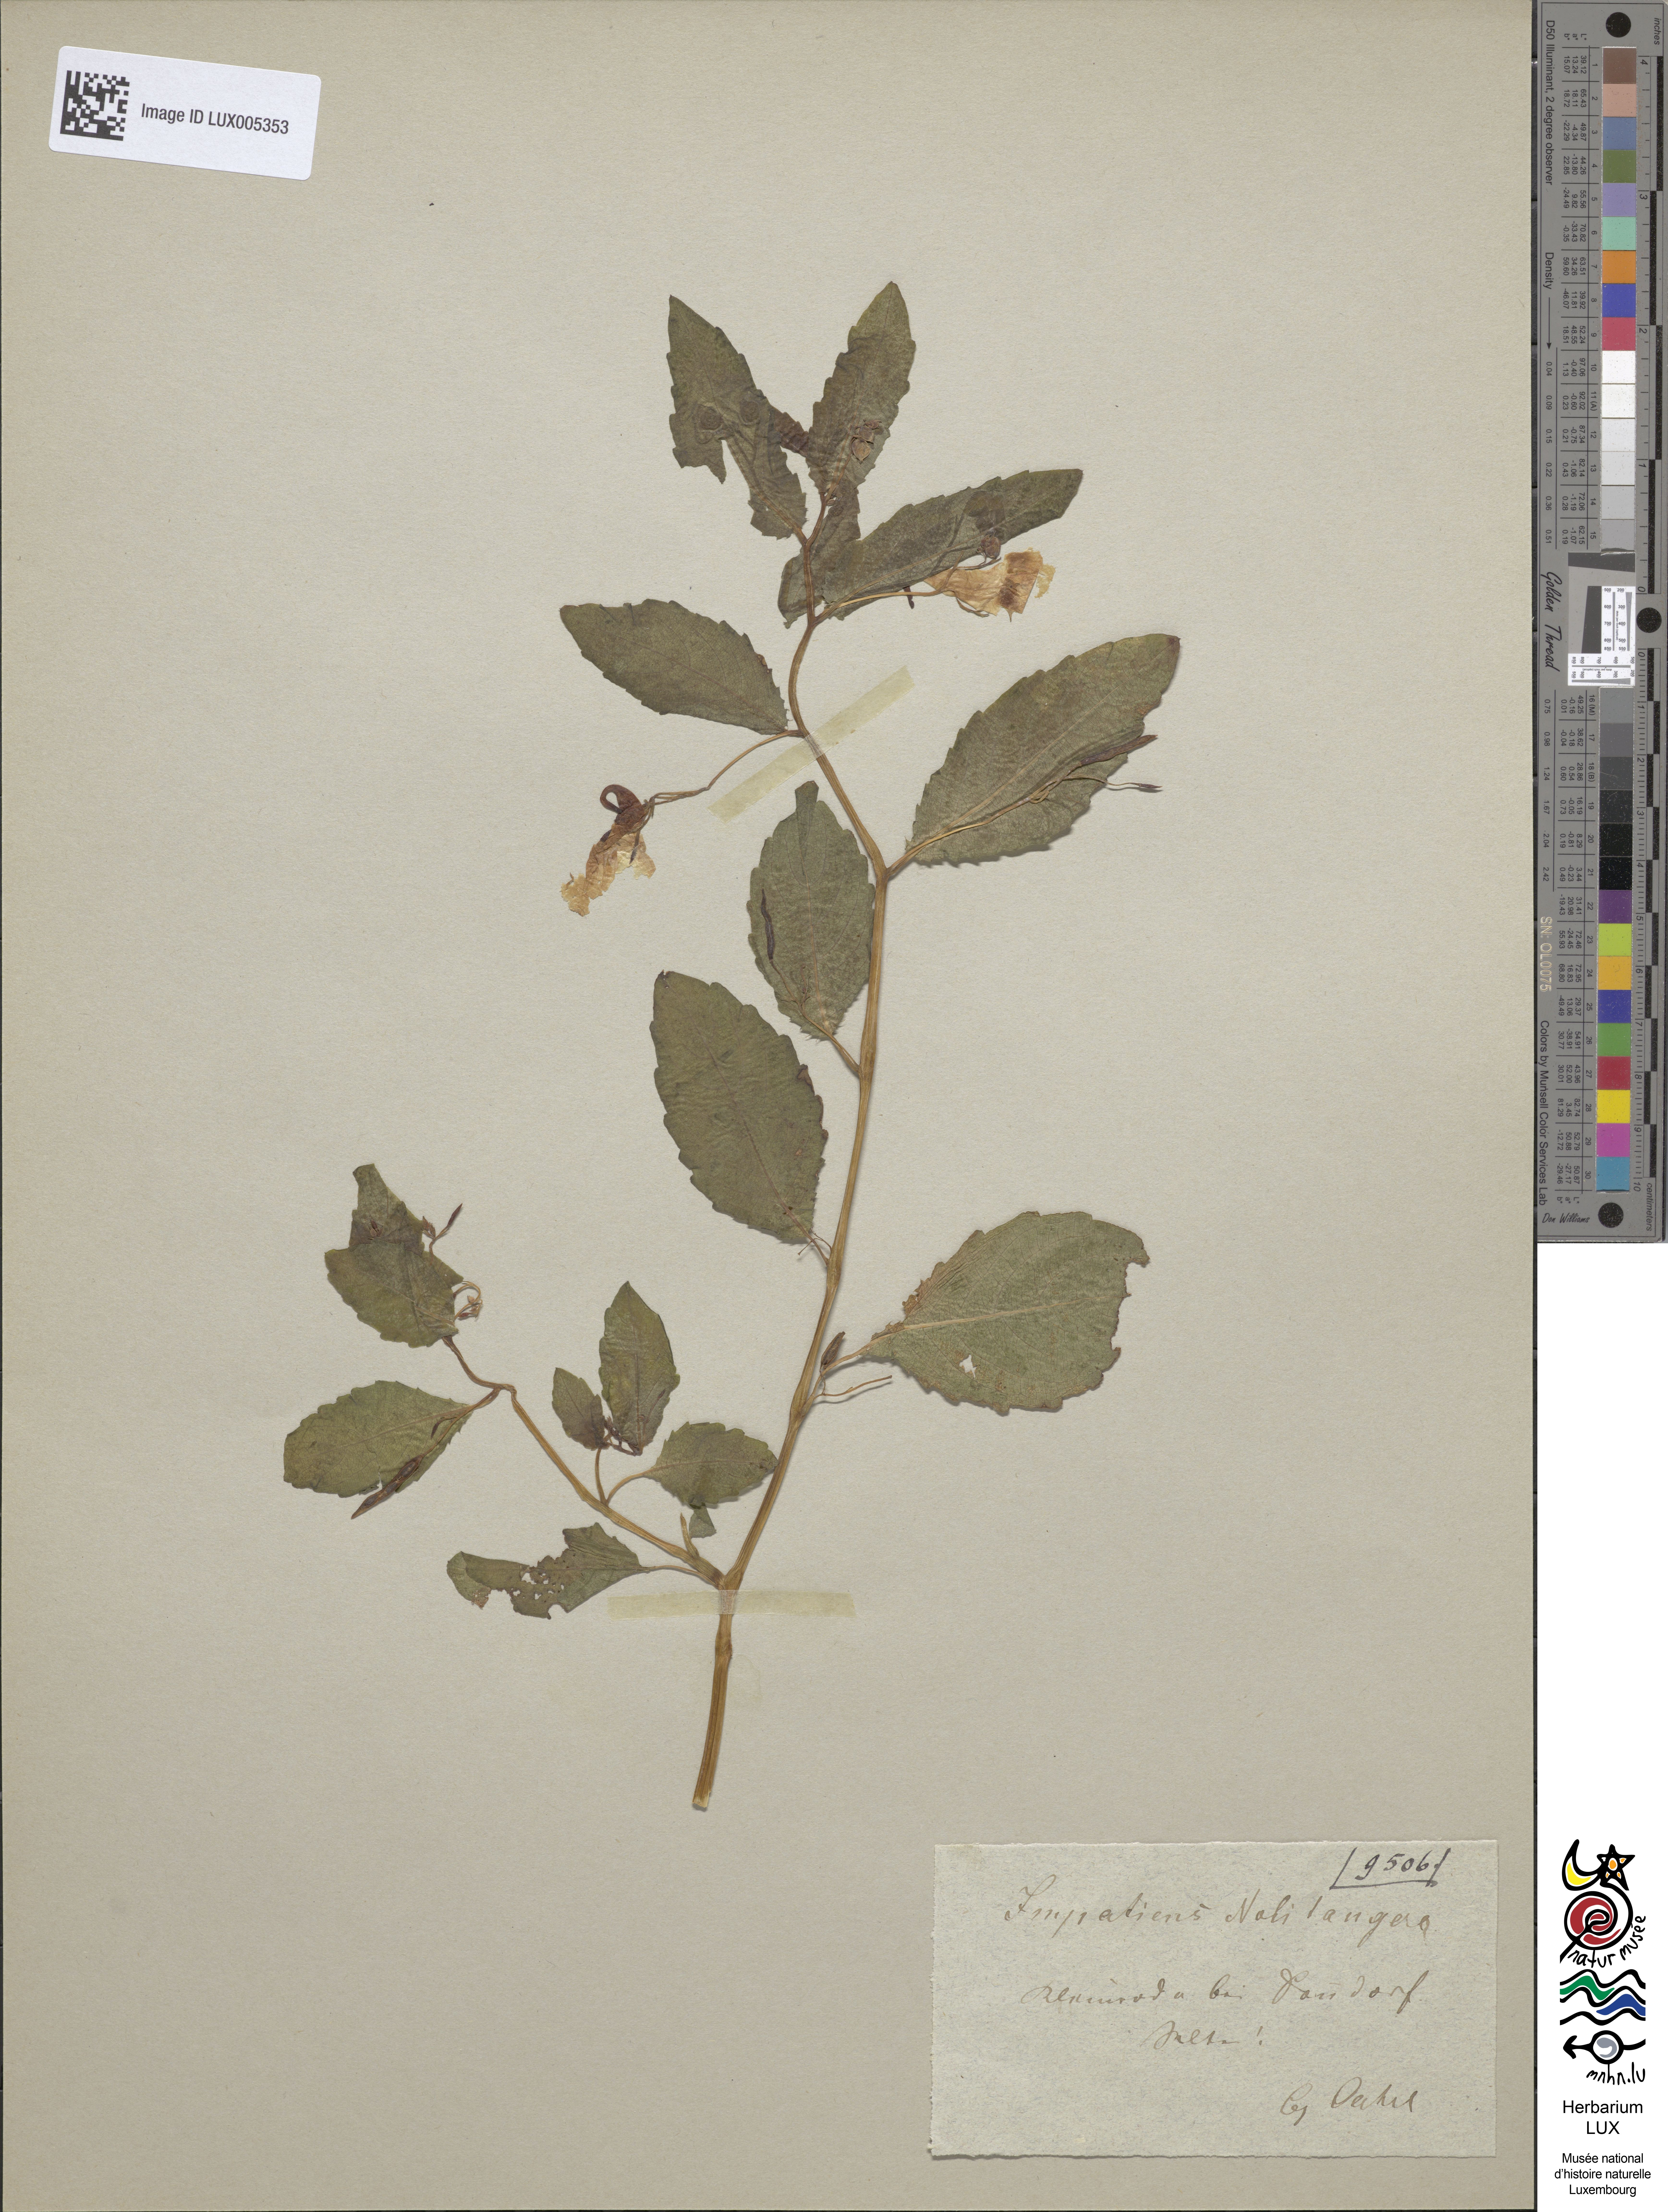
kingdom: Plantae
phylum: Tracheophyta
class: Magnoliopsida
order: Ericales
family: Balsaminaceae
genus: Impatiens
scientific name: Impatiens noli-tangere
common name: Touch-me-not balsam
